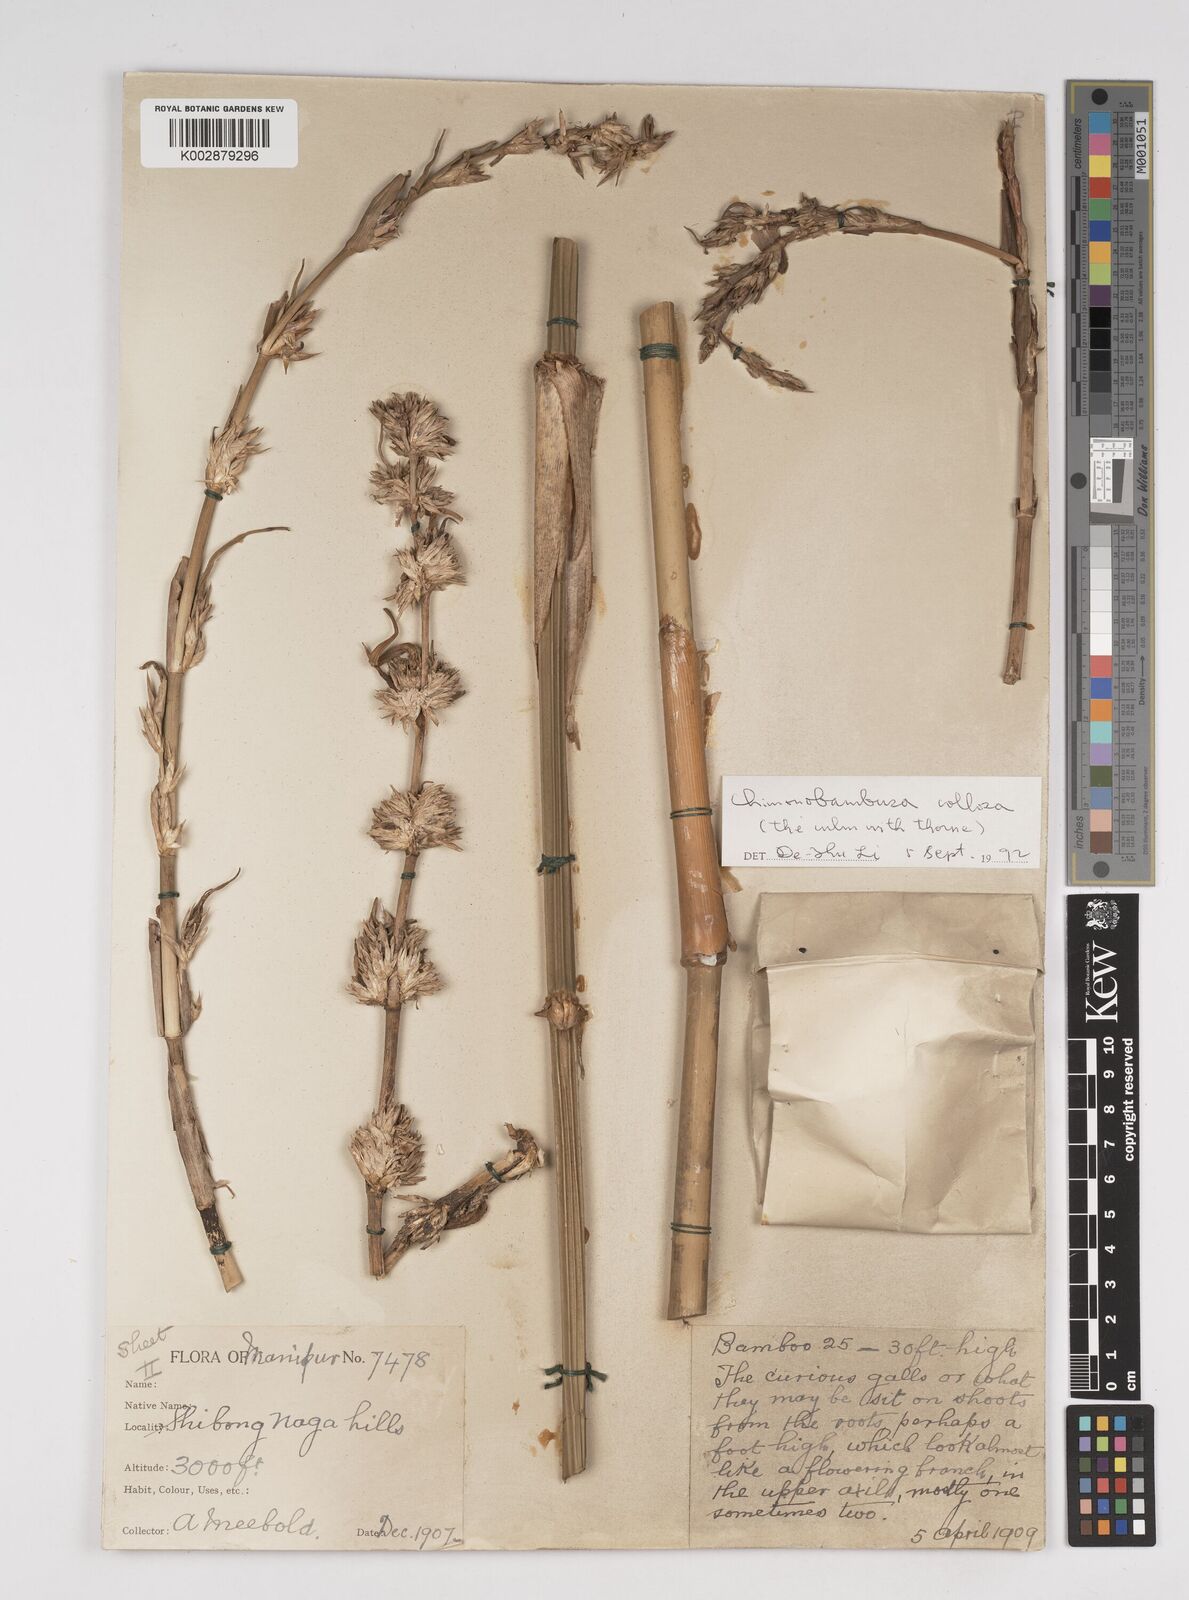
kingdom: Plantae
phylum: Tracheophyta
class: Liliopsida
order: Poales
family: Poaceae
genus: Dendrocalamus
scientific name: Dendrocalamus
